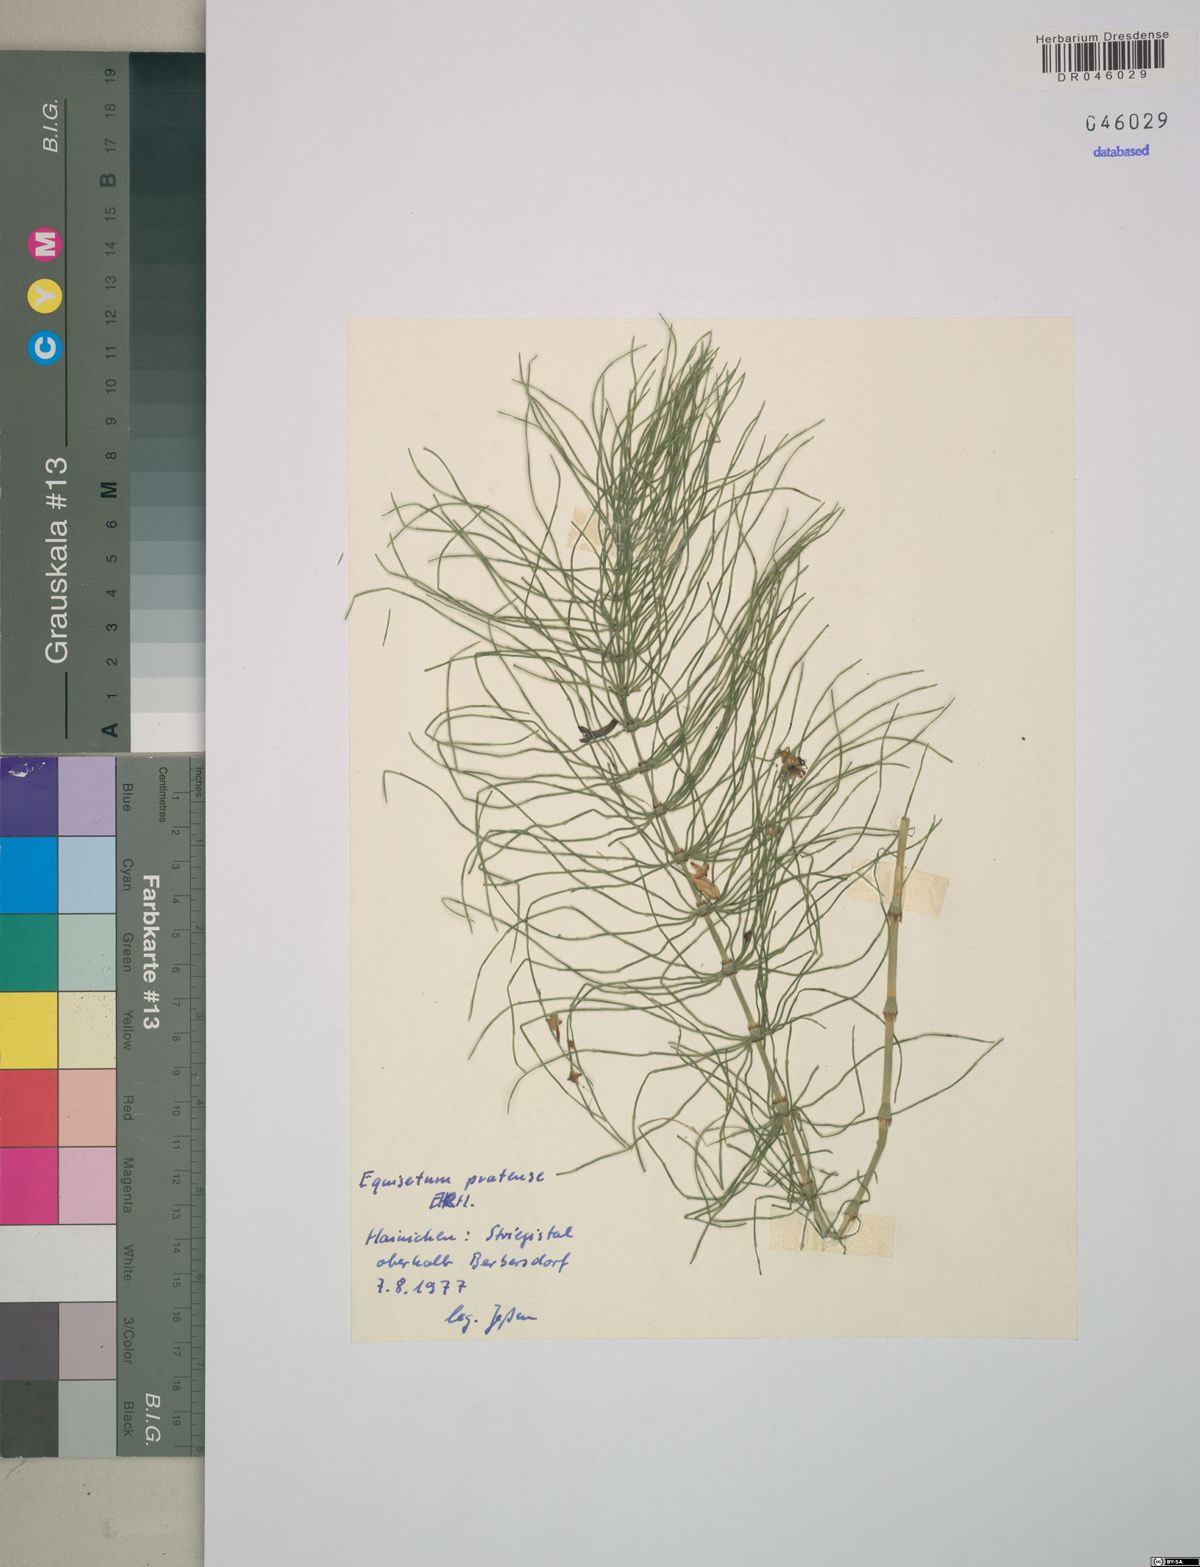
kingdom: Plantae
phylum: Tracheophyta
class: Polypodiopsida
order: Equisetales
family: Equisetaceae
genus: Equisetum
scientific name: Equisetum pratense
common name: Meadow horsetail
